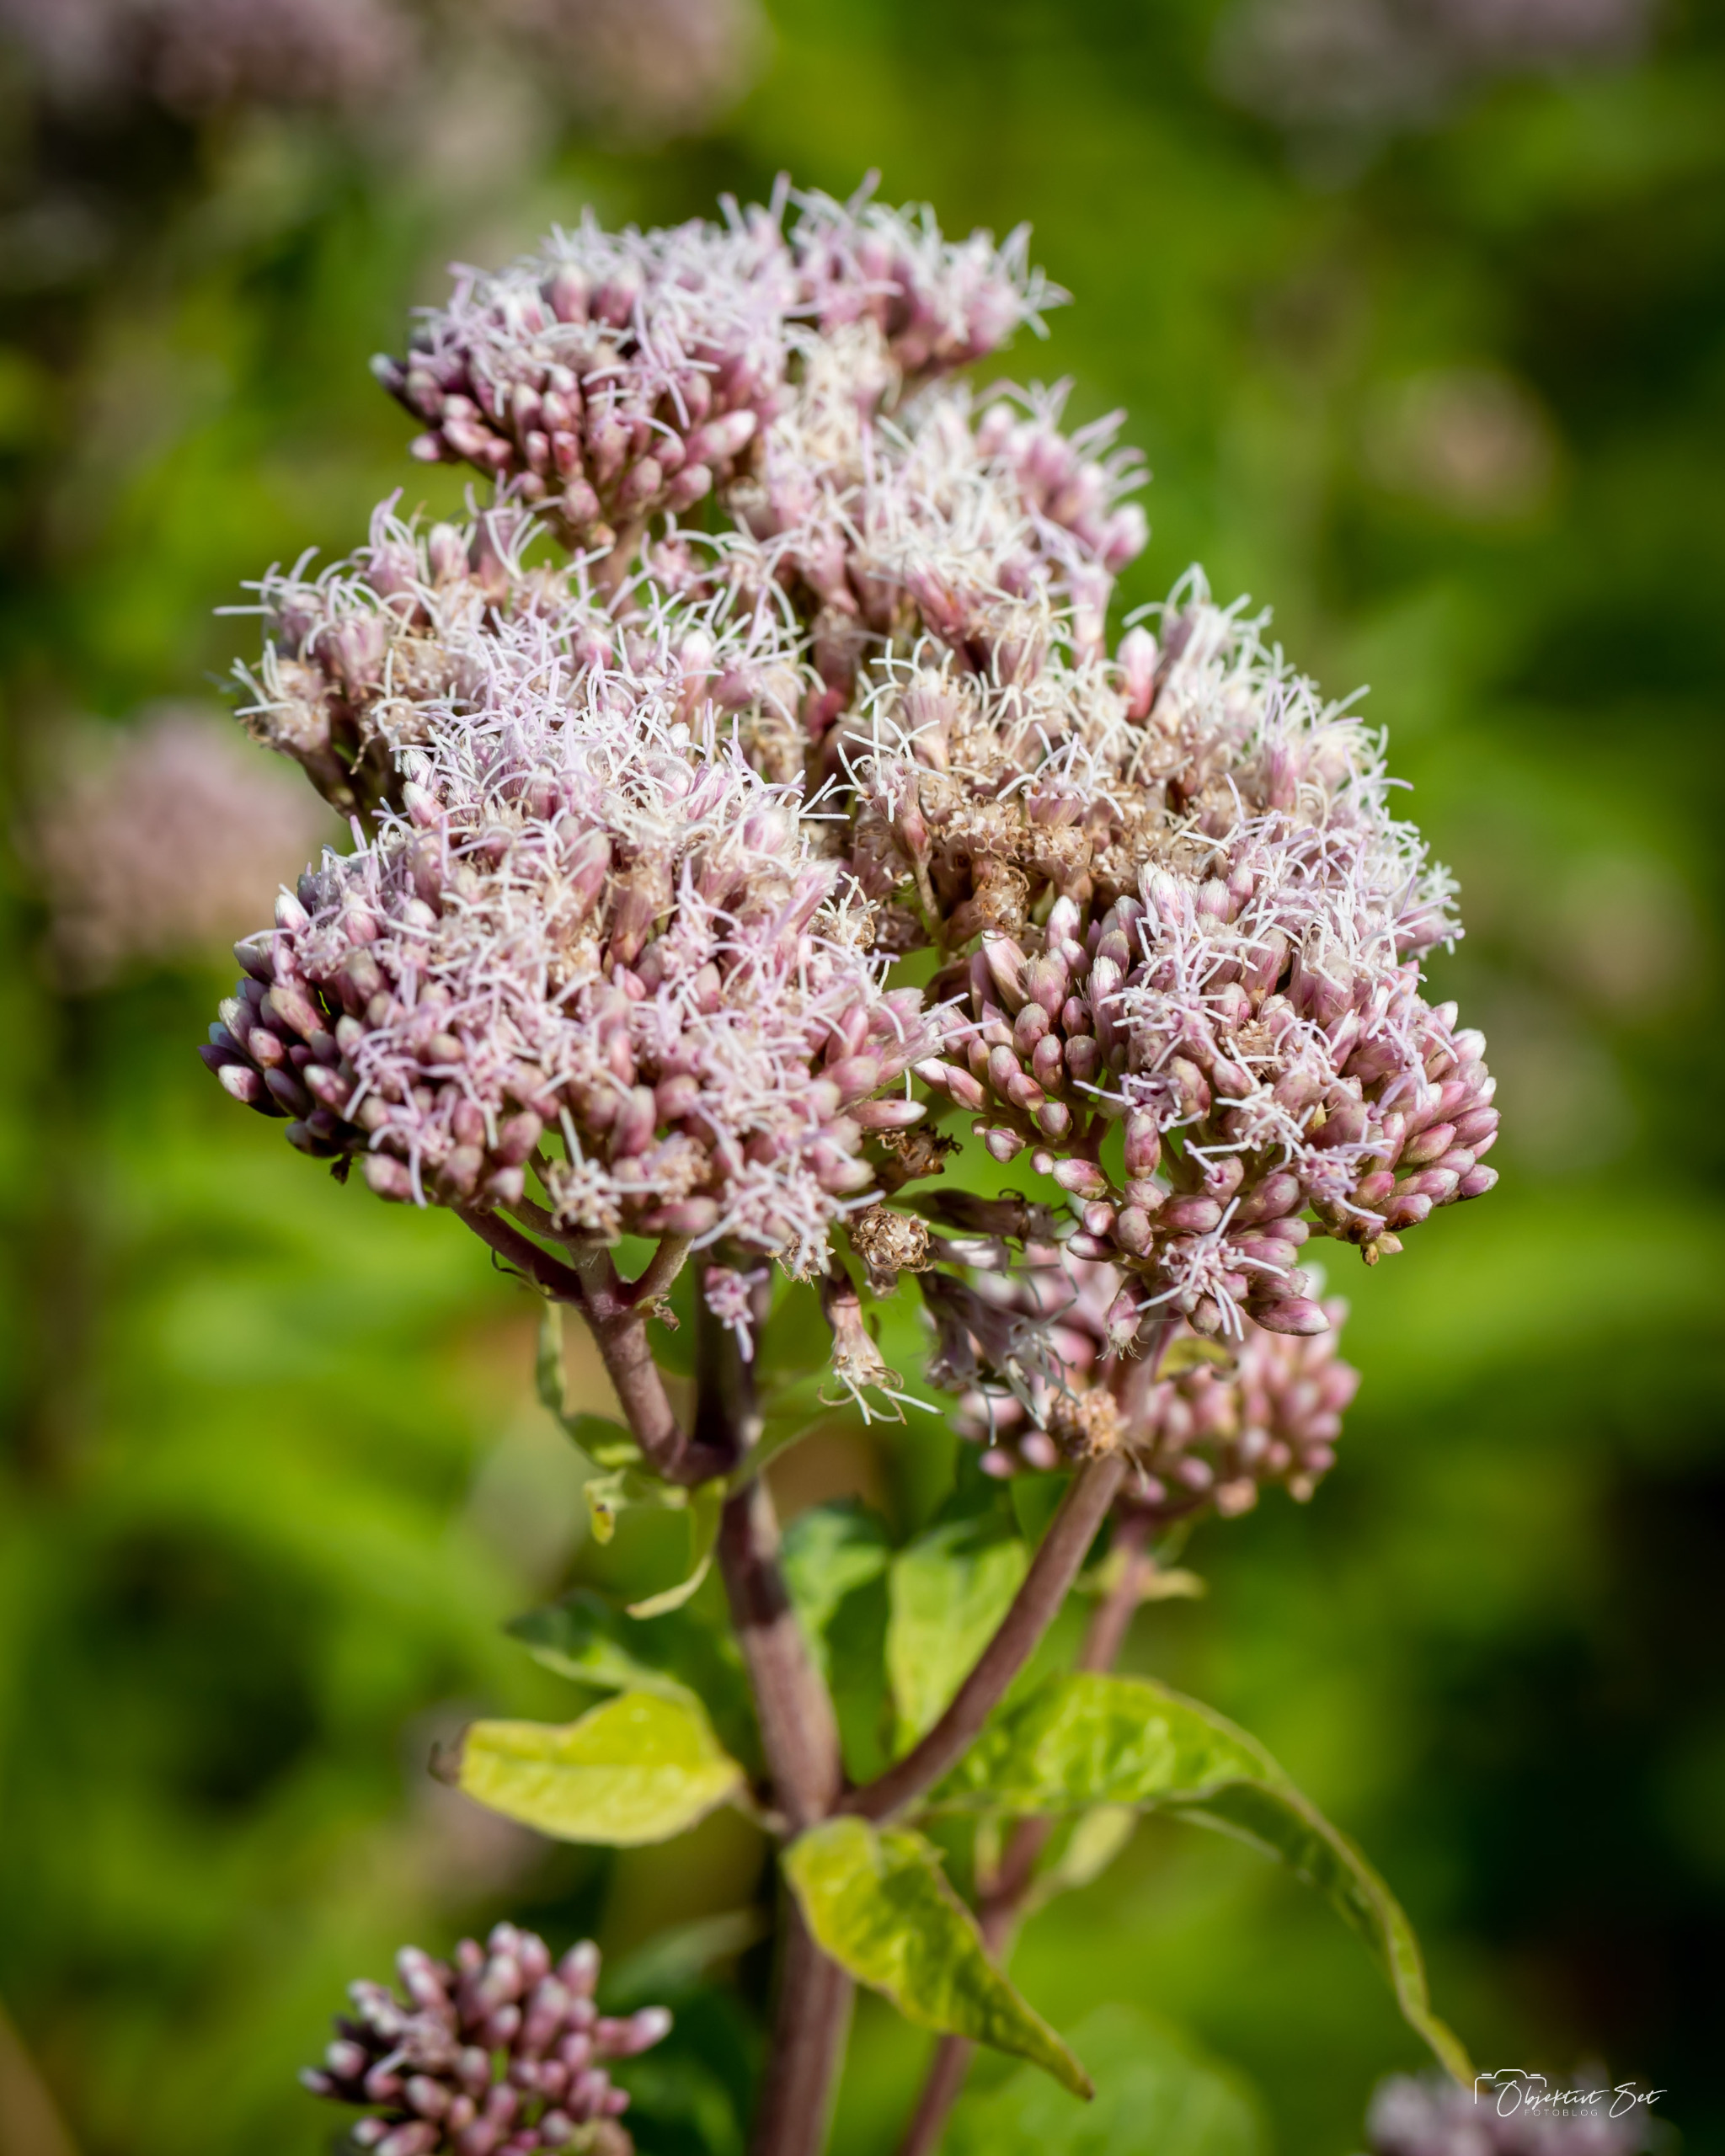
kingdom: Plantae
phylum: Tracheophyta
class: Magnoliopsida
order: Asterales
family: Asteraceae
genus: Eupatorium
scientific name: Eupatorium cannabinum
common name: Hjortetrøst
